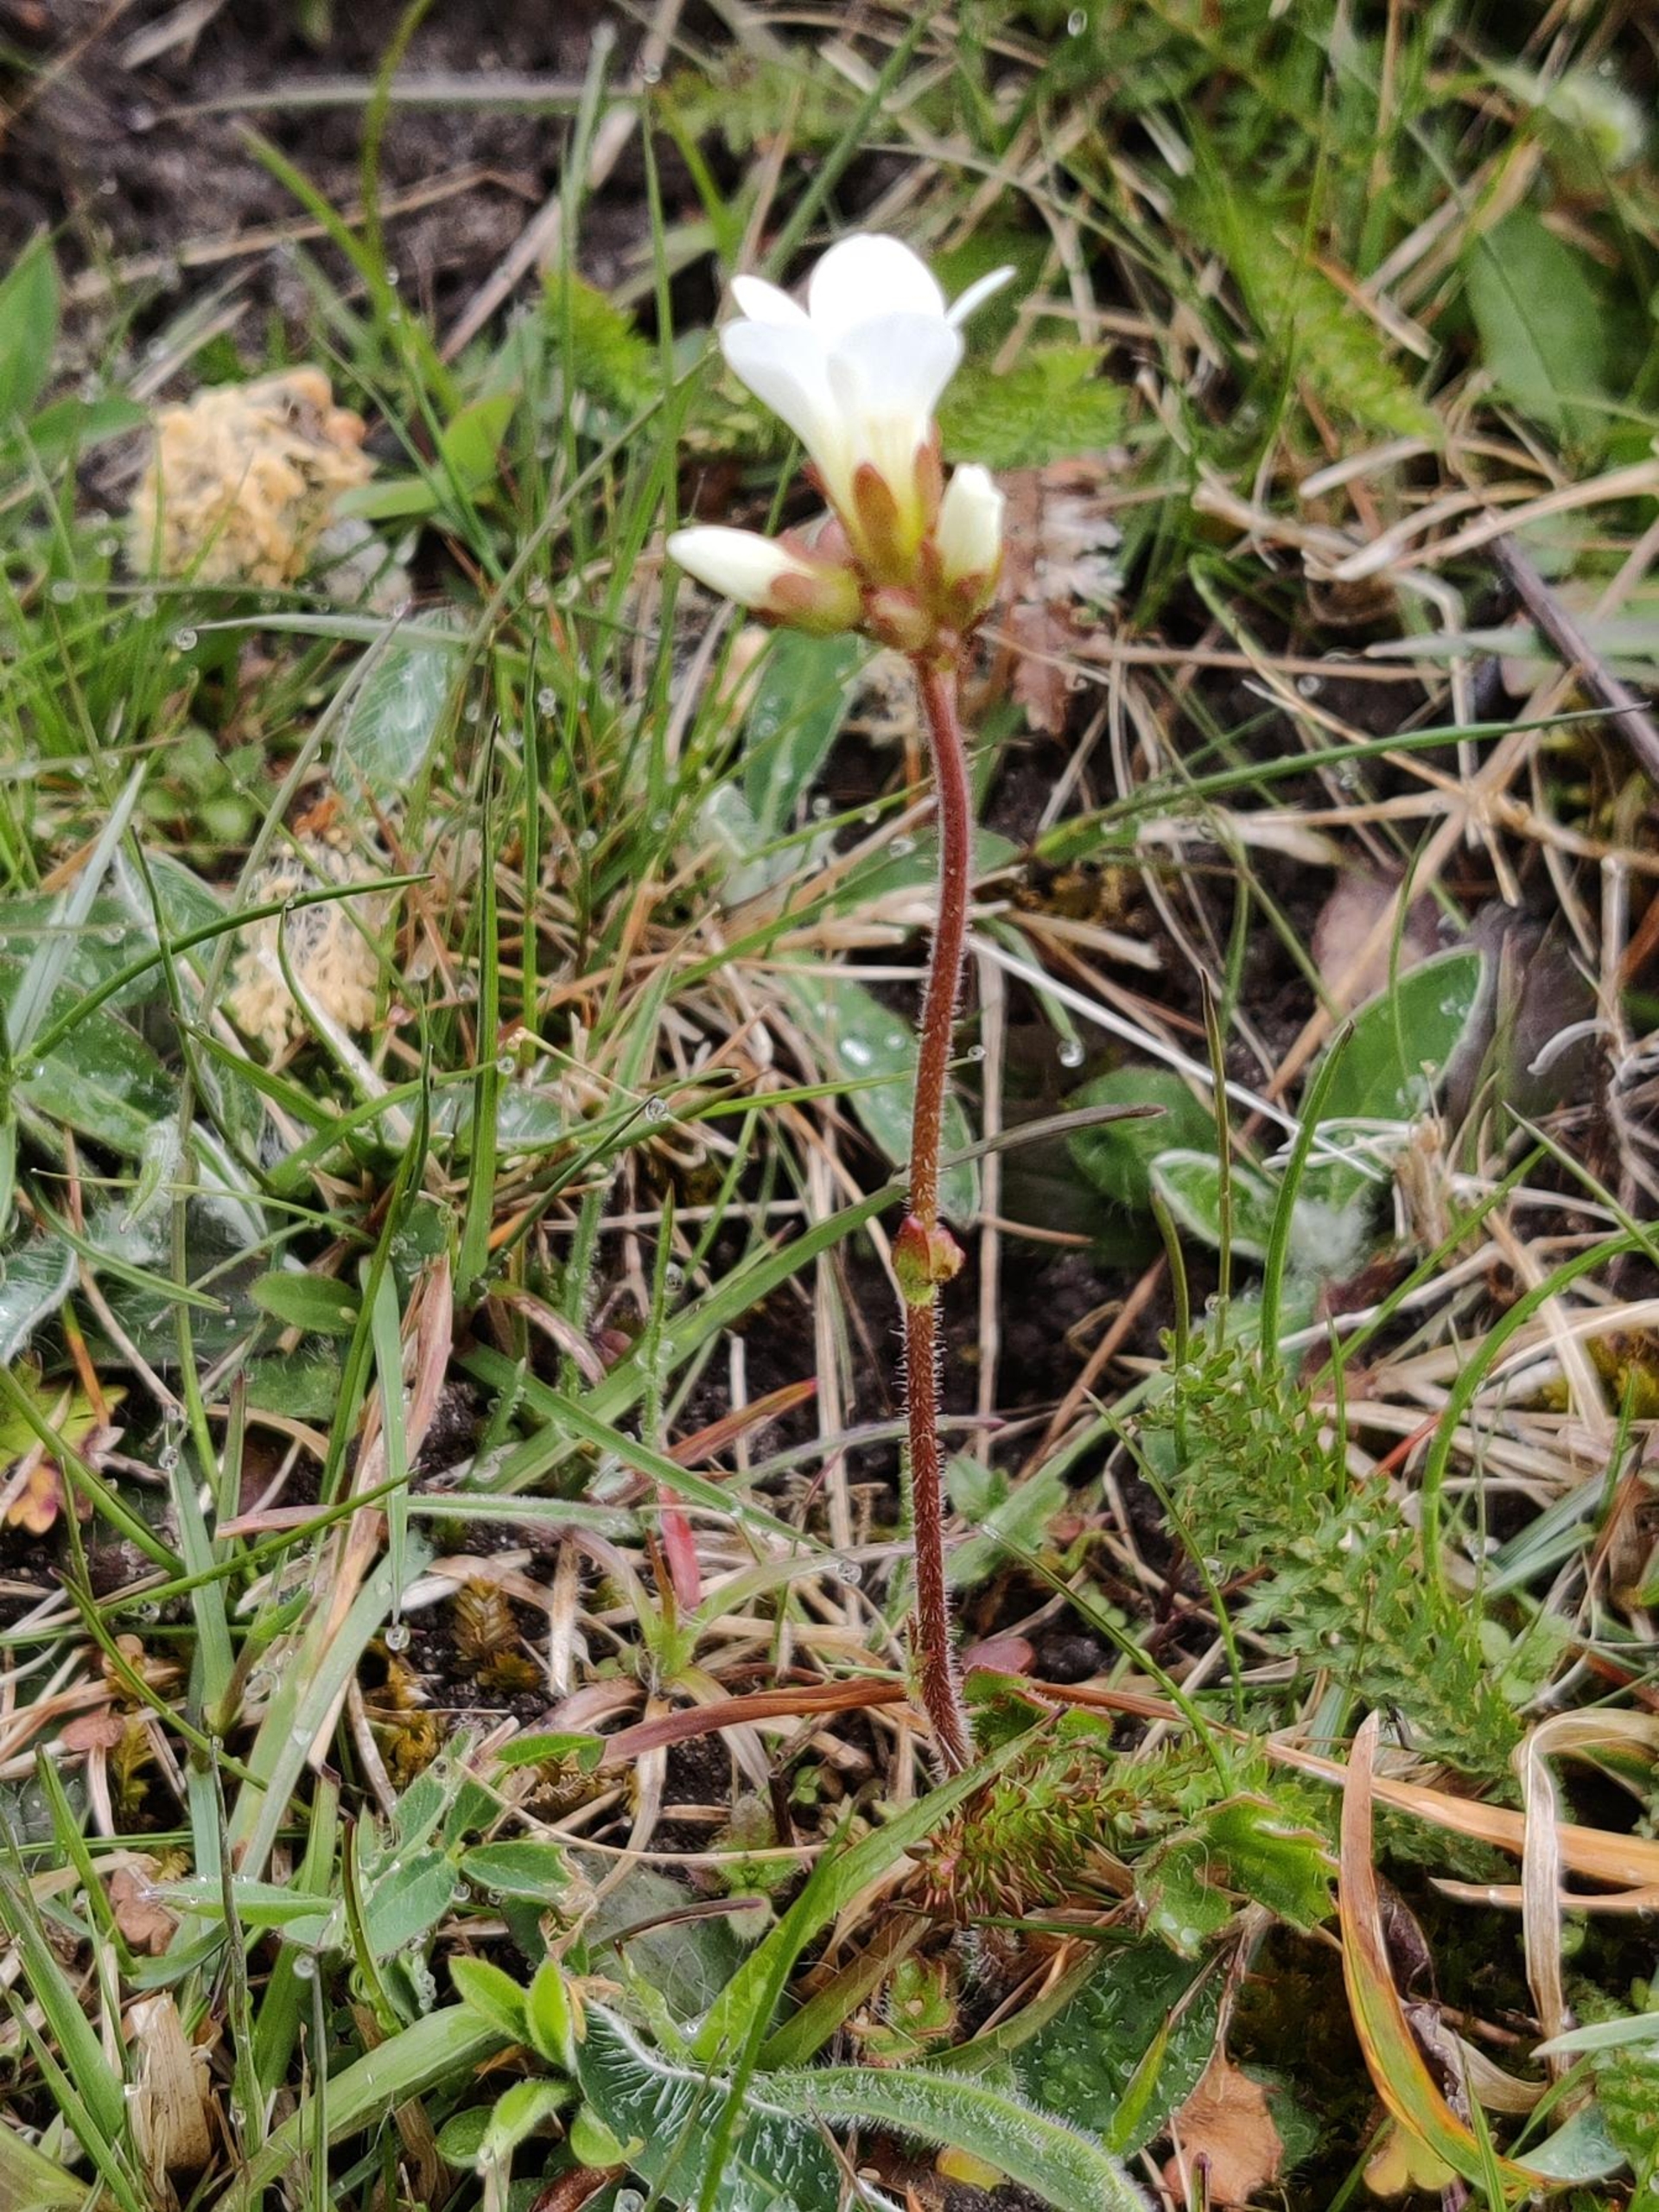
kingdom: Plantae
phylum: Tracheophyta
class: Magnoliopsida
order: Saxifragales
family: Saxifragaceae
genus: Saxifraga
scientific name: Saxifraga granulata
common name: Kornet stenbræk
